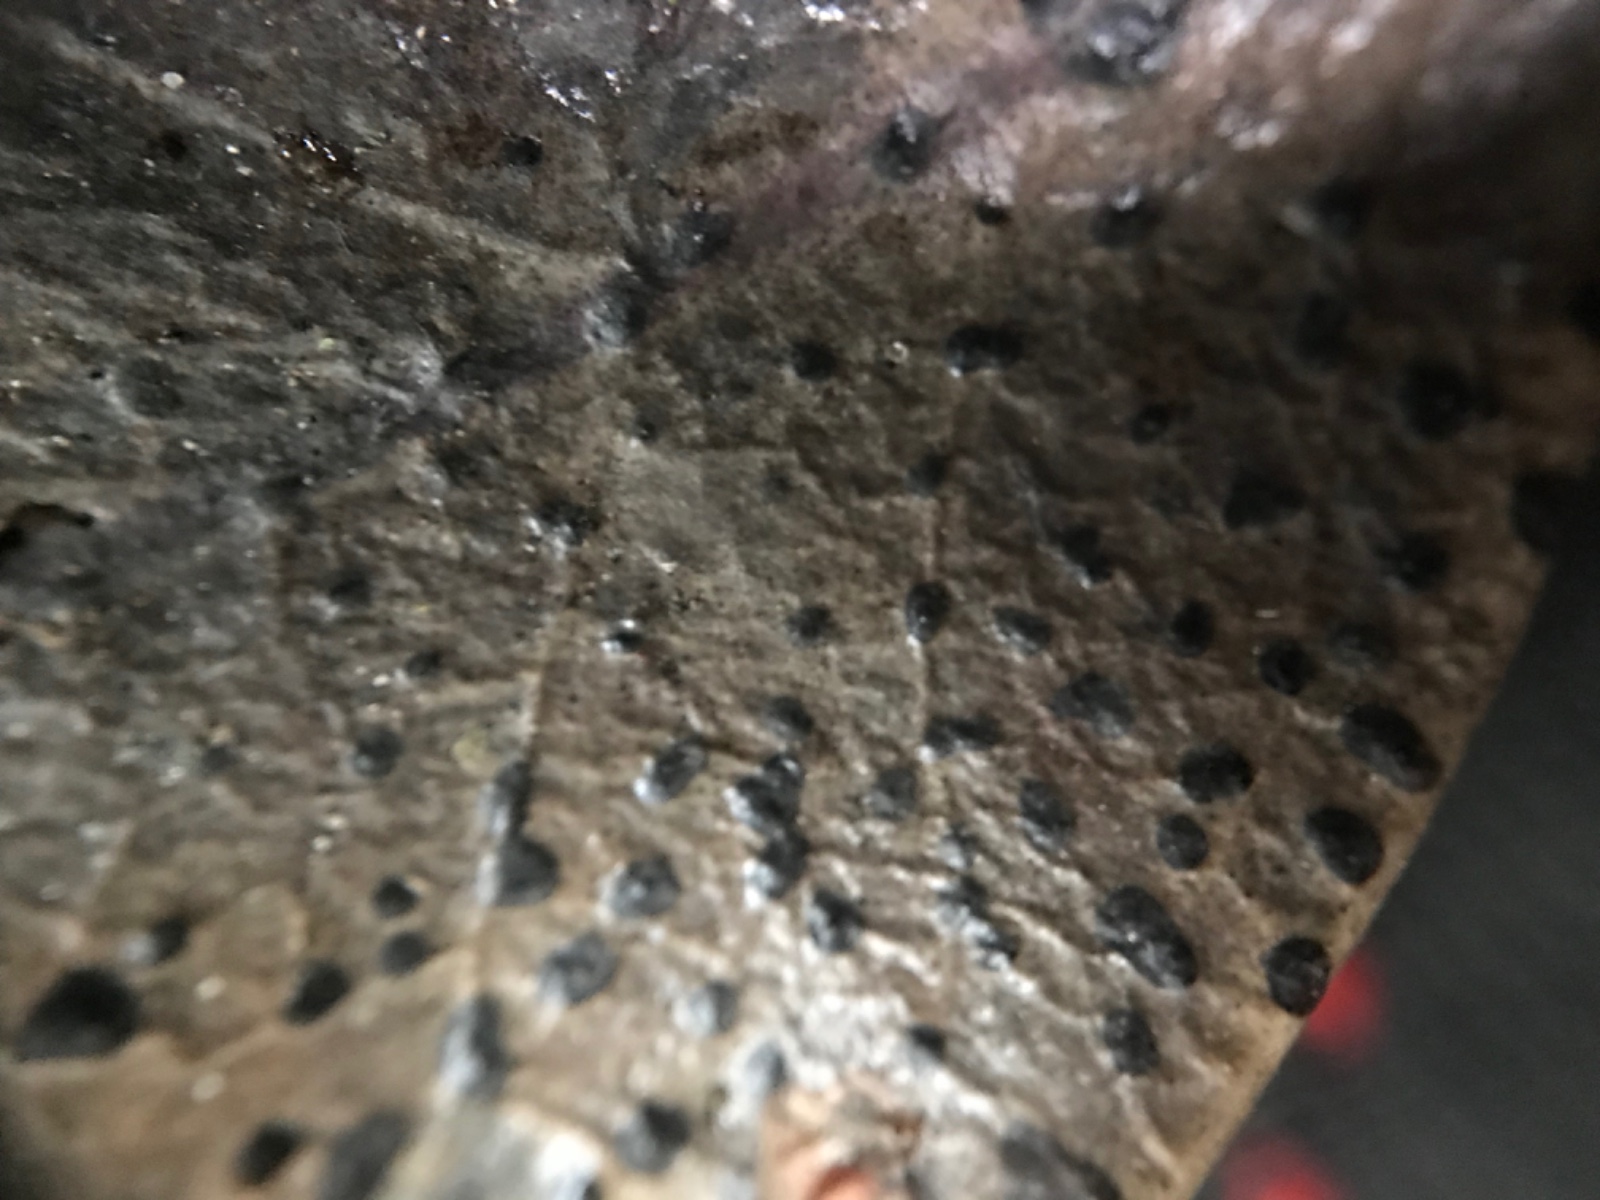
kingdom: Fungi
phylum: Ascomycota
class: Leotiomycetes
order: Phacidiales
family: Phacidiaceae
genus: Phacidium
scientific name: Phacidium lauri
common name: kristtorn-tandskive
